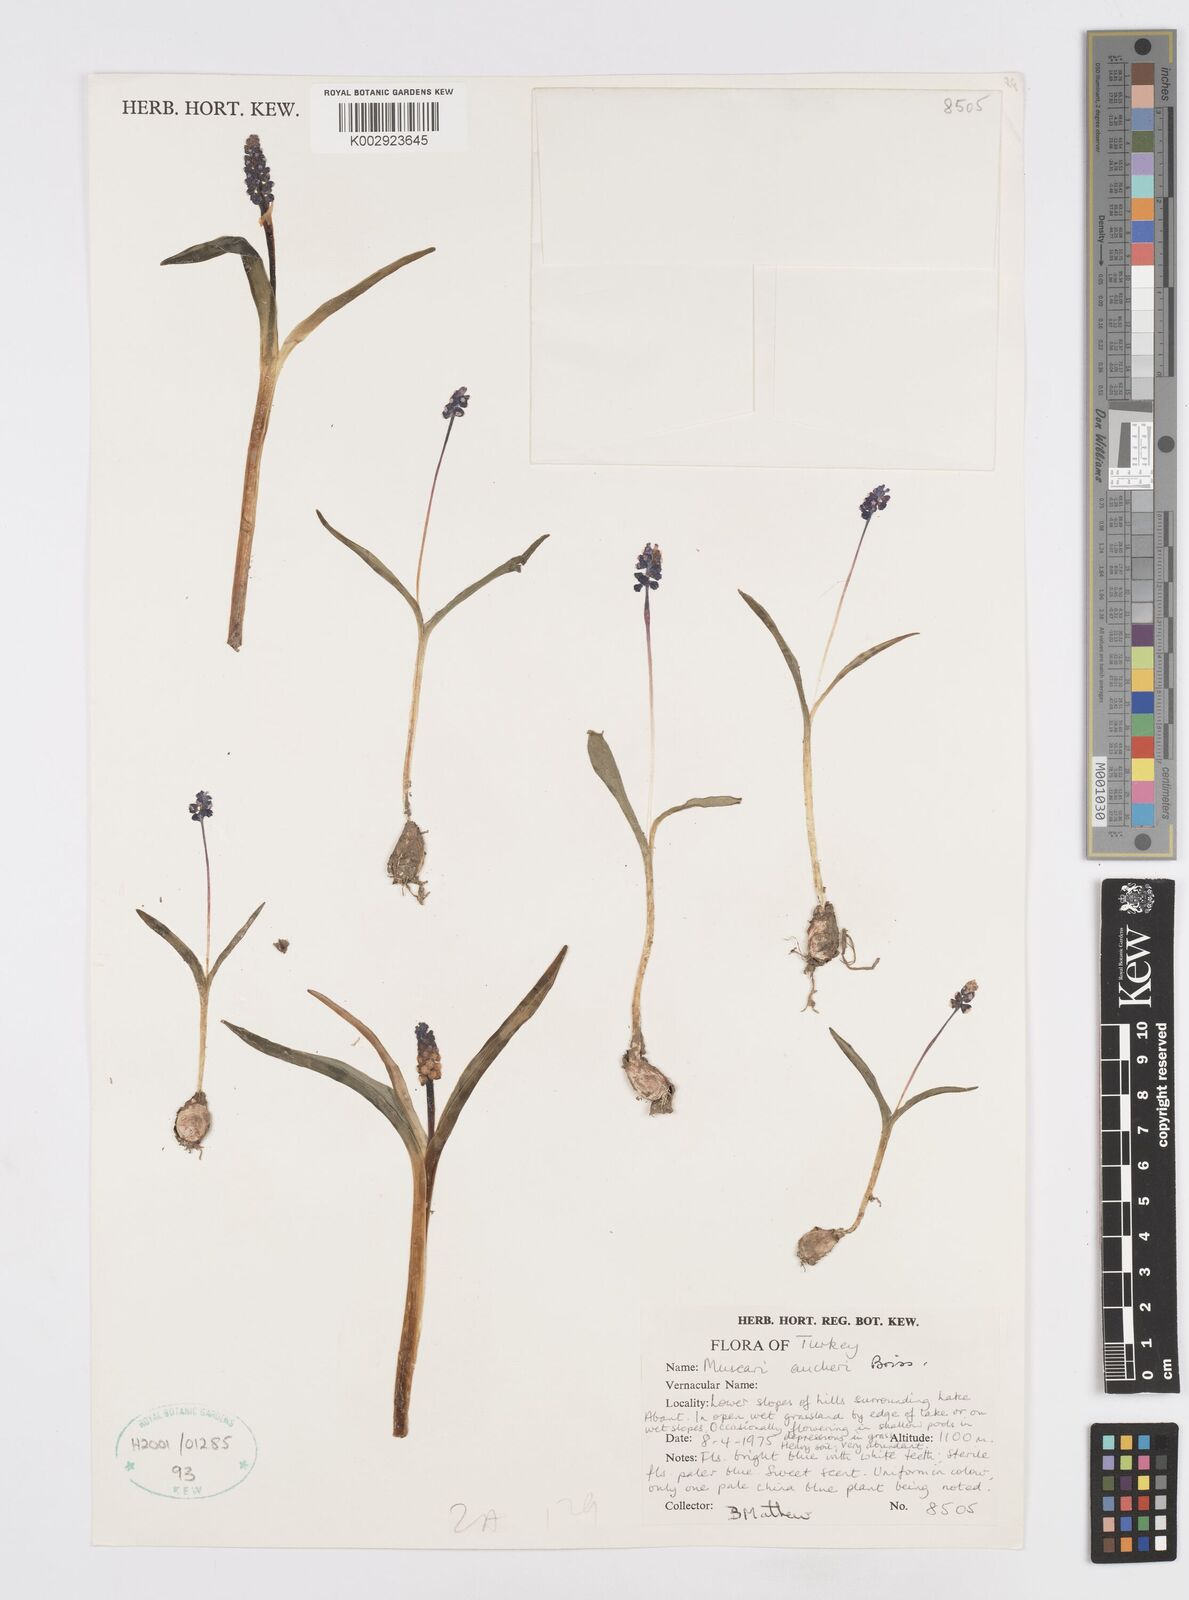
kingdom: Plantae
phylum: Tracheophyta
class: Liliopsida
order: Asparagales
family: Asparagaceae
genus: Muscari
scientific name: Muscari aucheri
